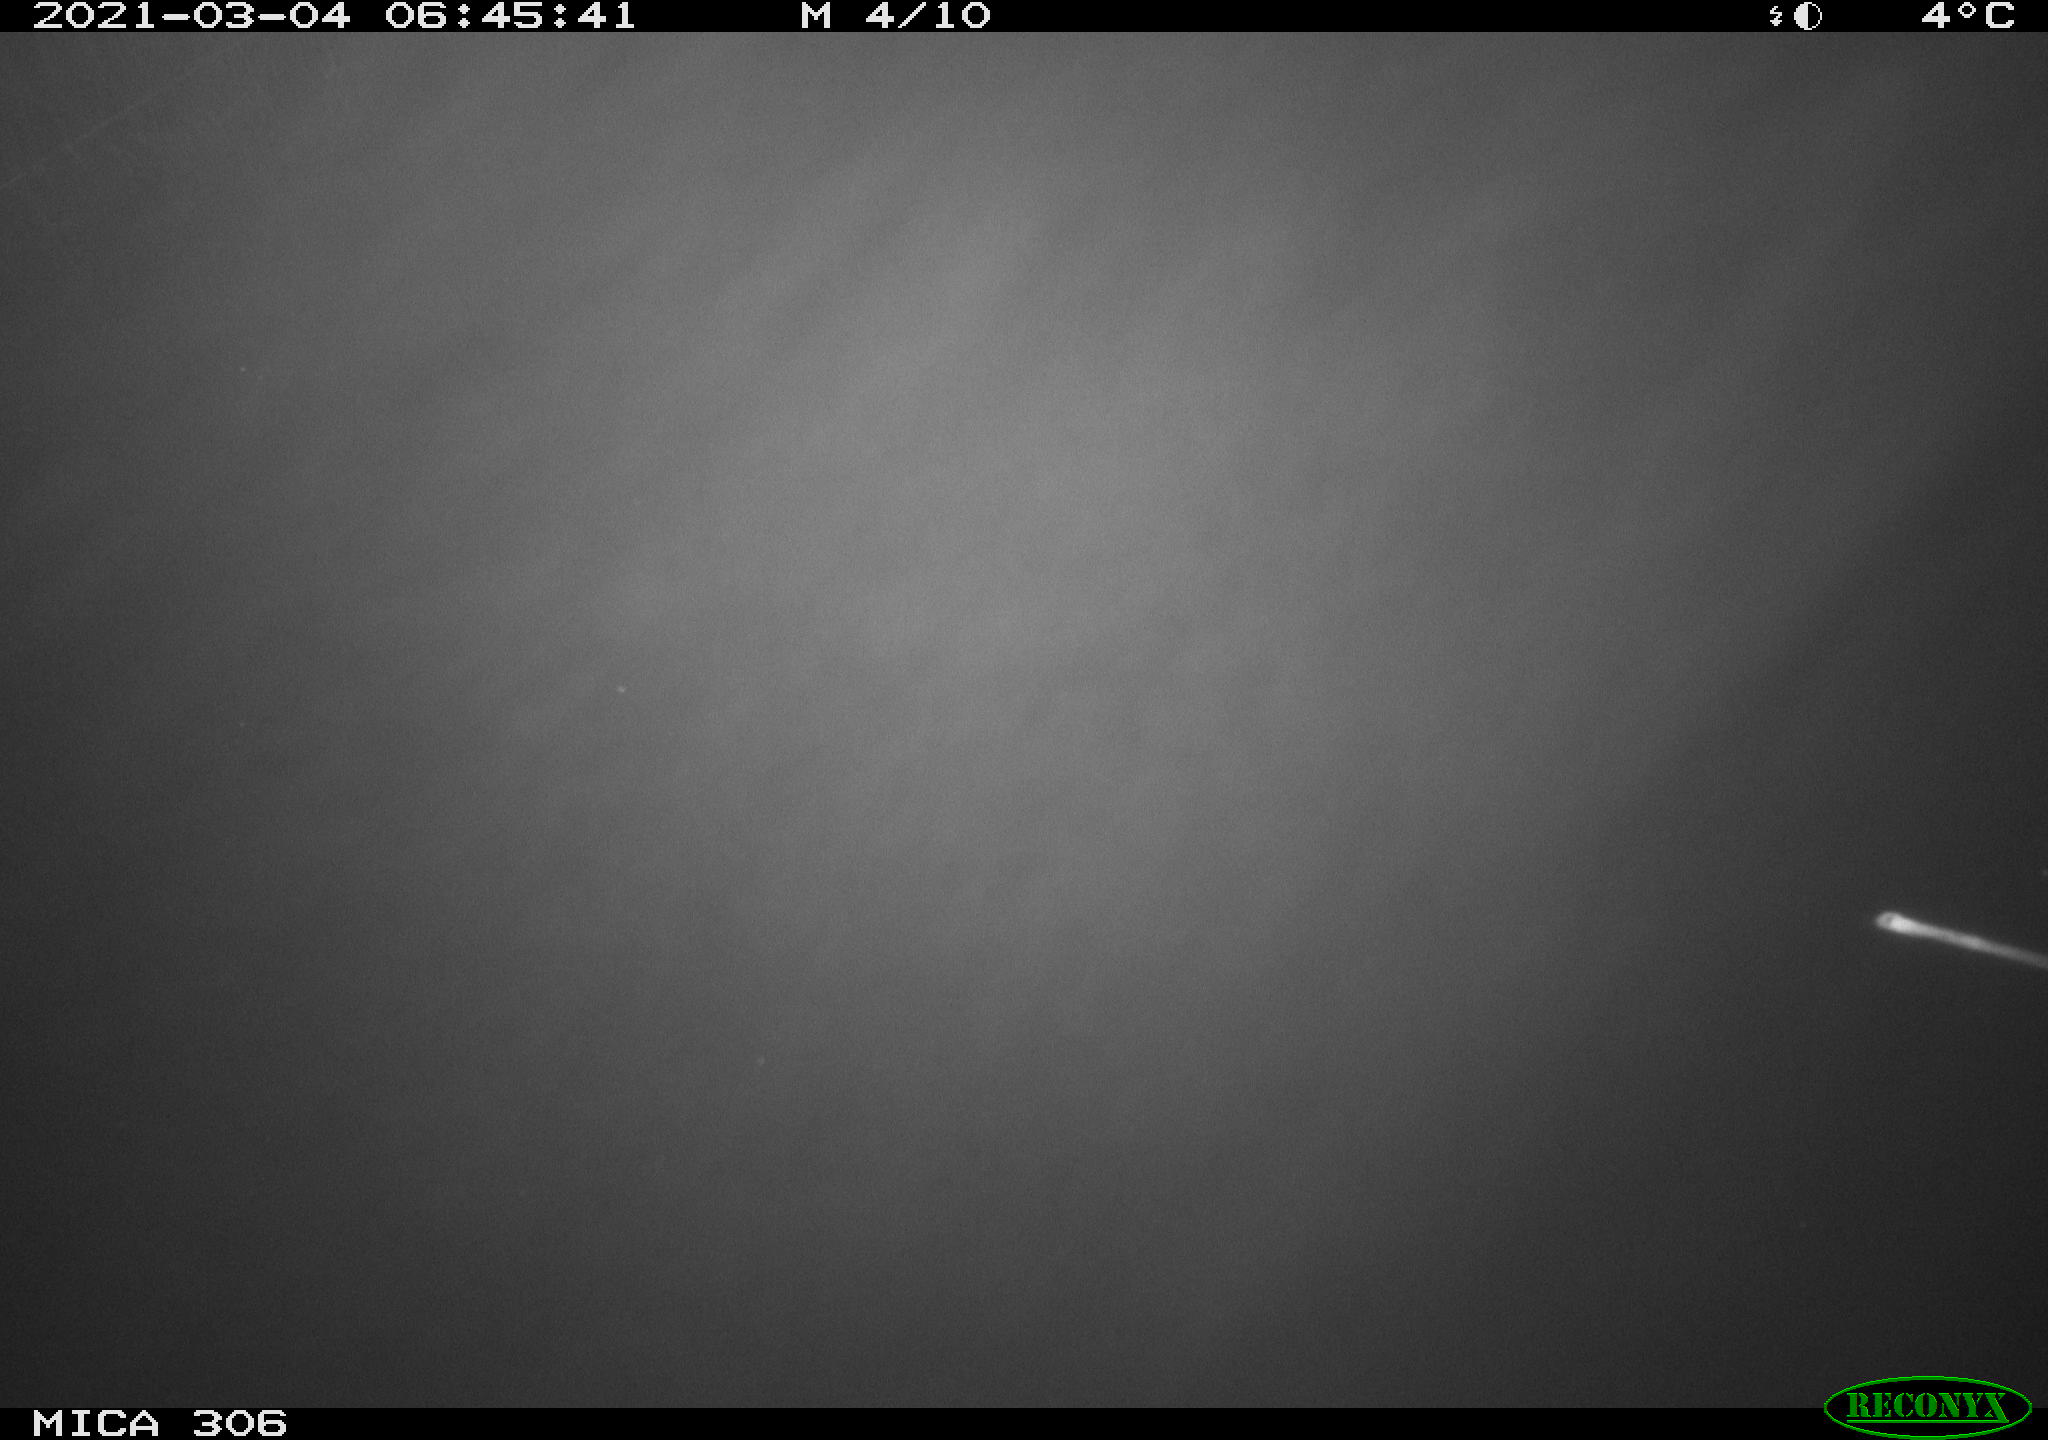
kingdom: Animalia
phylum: Chordata
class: Aves
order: Gruiformes
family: Rallidae
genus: Gallinula
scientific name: Gallinula chloropus
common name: Common moorhen
